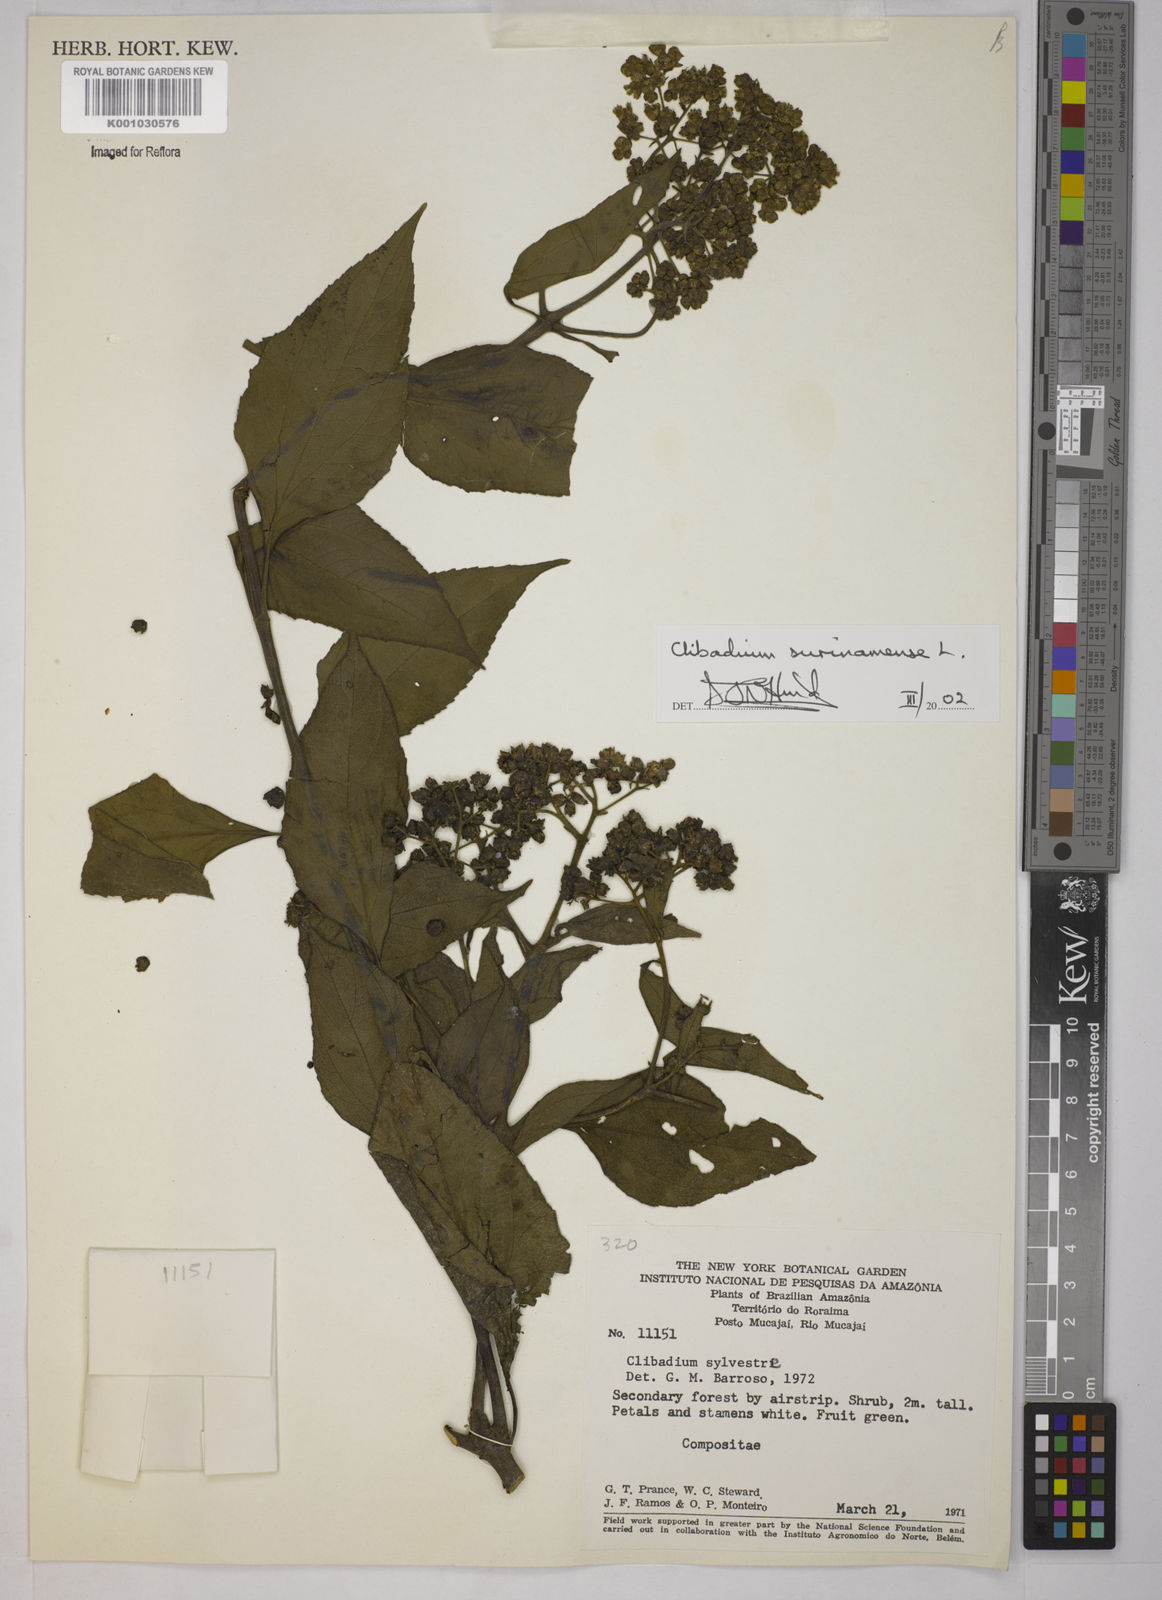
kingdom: Plantae
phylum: Tracheophyta
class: Magnoliopsida
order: Asterales
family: Asteraceae
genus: Clibadium
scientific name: Clibadium
